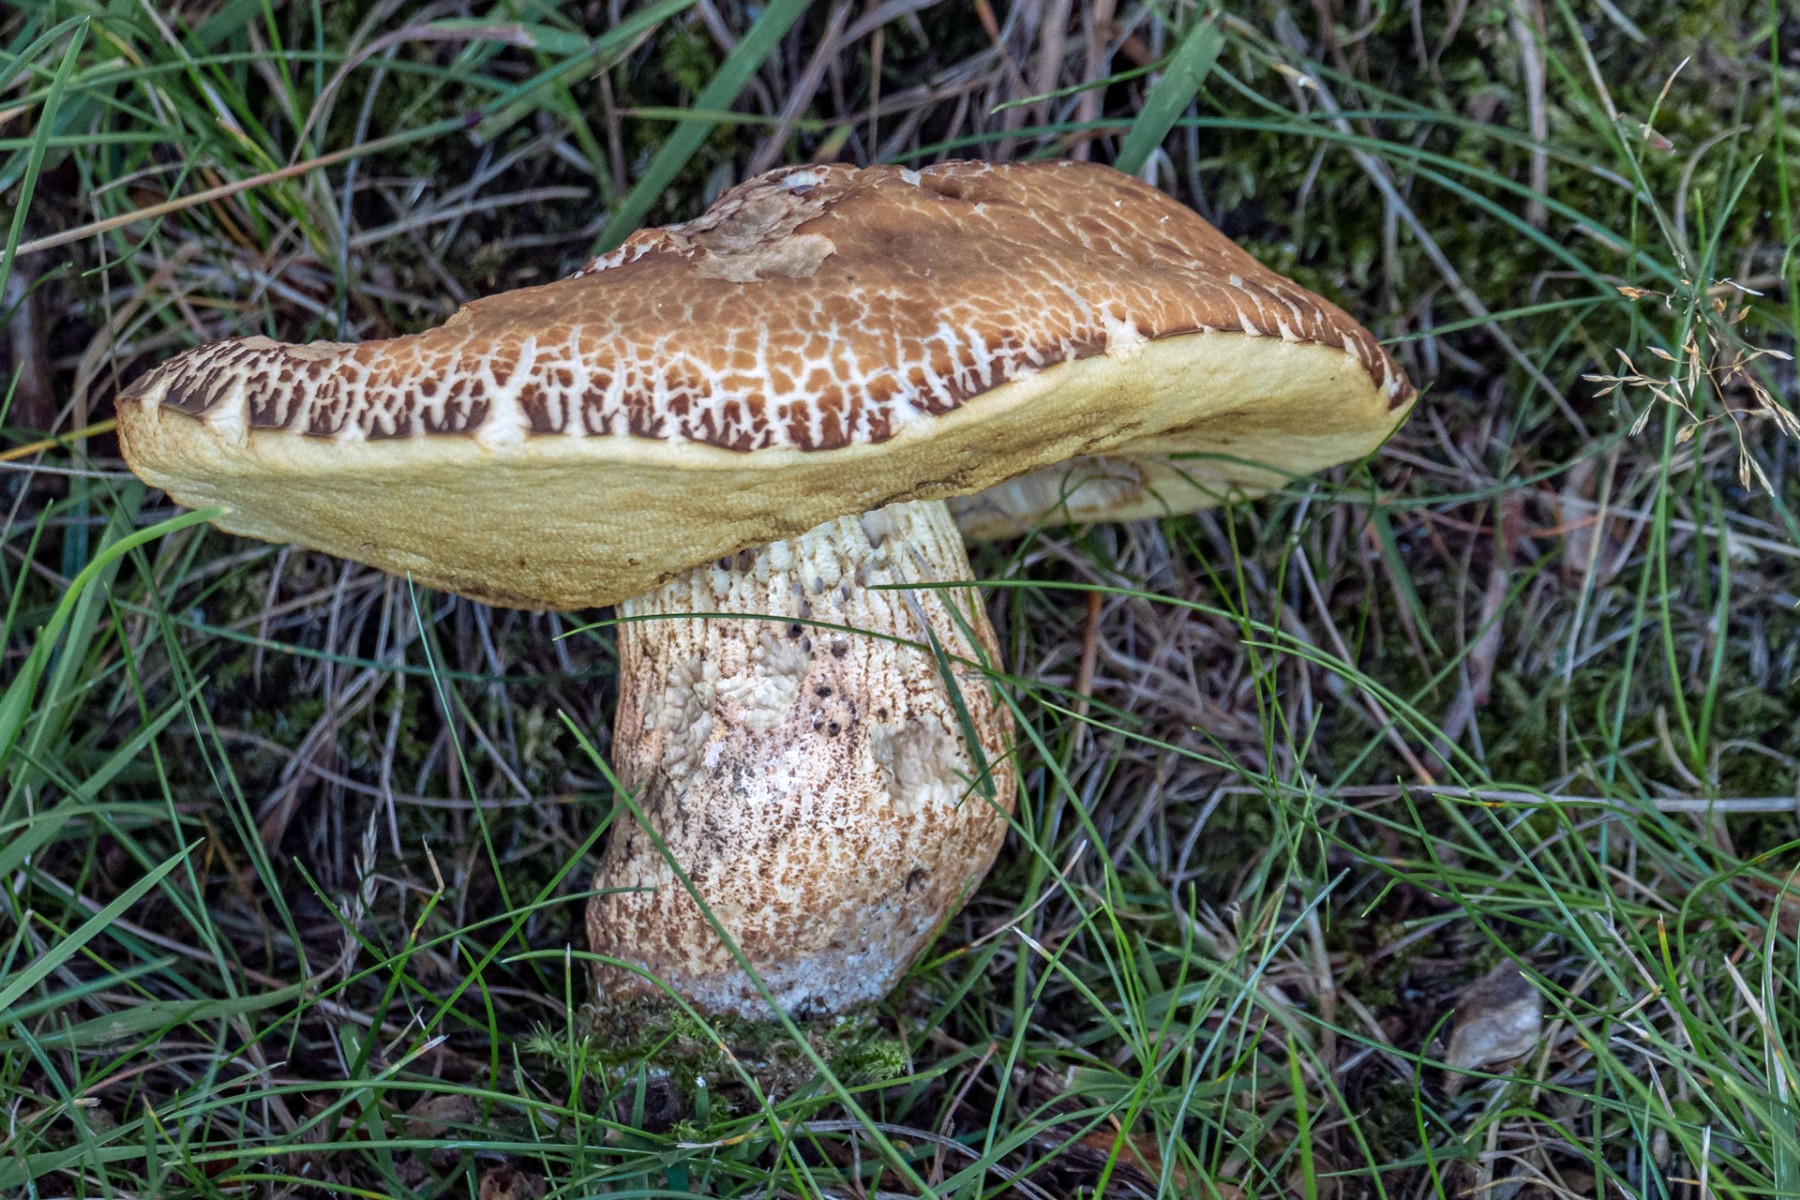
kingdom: Fungi
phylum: Basidiomycota
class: Agaricomycetes
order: Boletales
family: Boletaceae
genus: Leccinellum
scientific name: Leccinellum crocipodium
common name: gul skælrørhat
